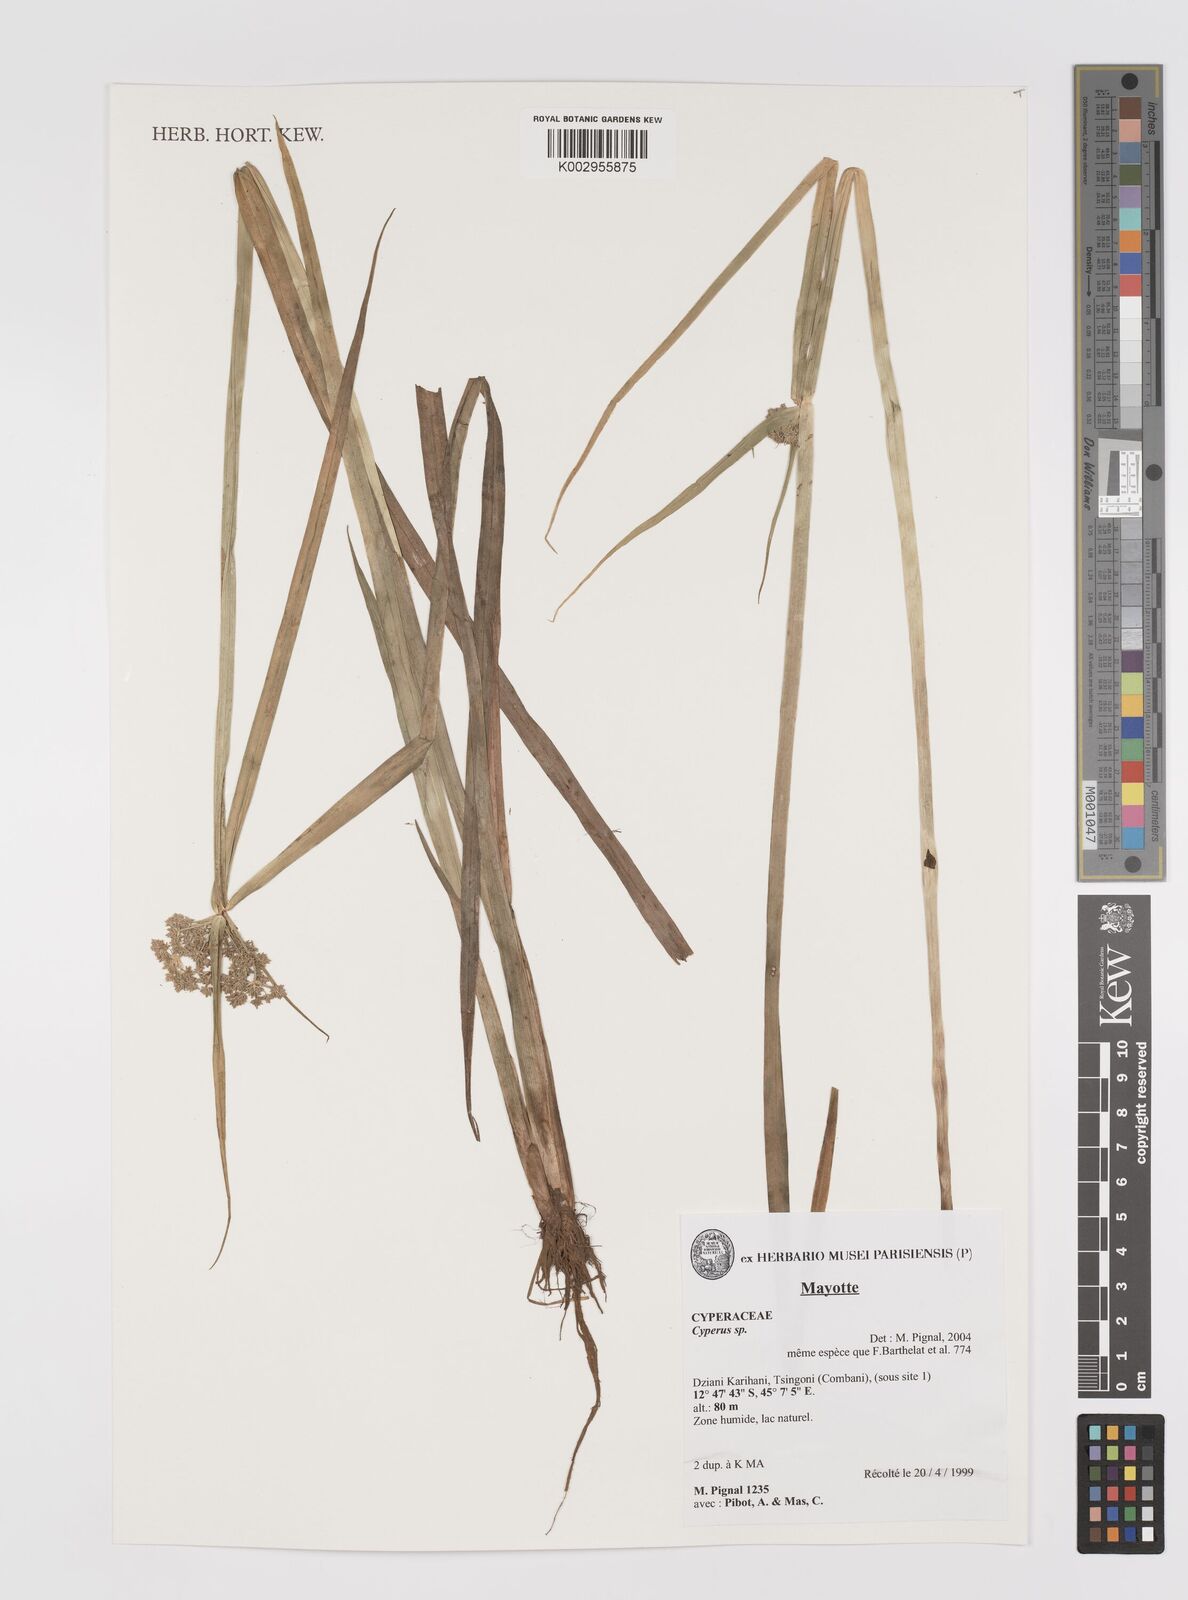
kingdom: Plantae
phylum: Tracheophyta
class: Liliopsida
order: Poales
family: Cyperaceae
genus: Cyperus
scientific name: Cyperus
